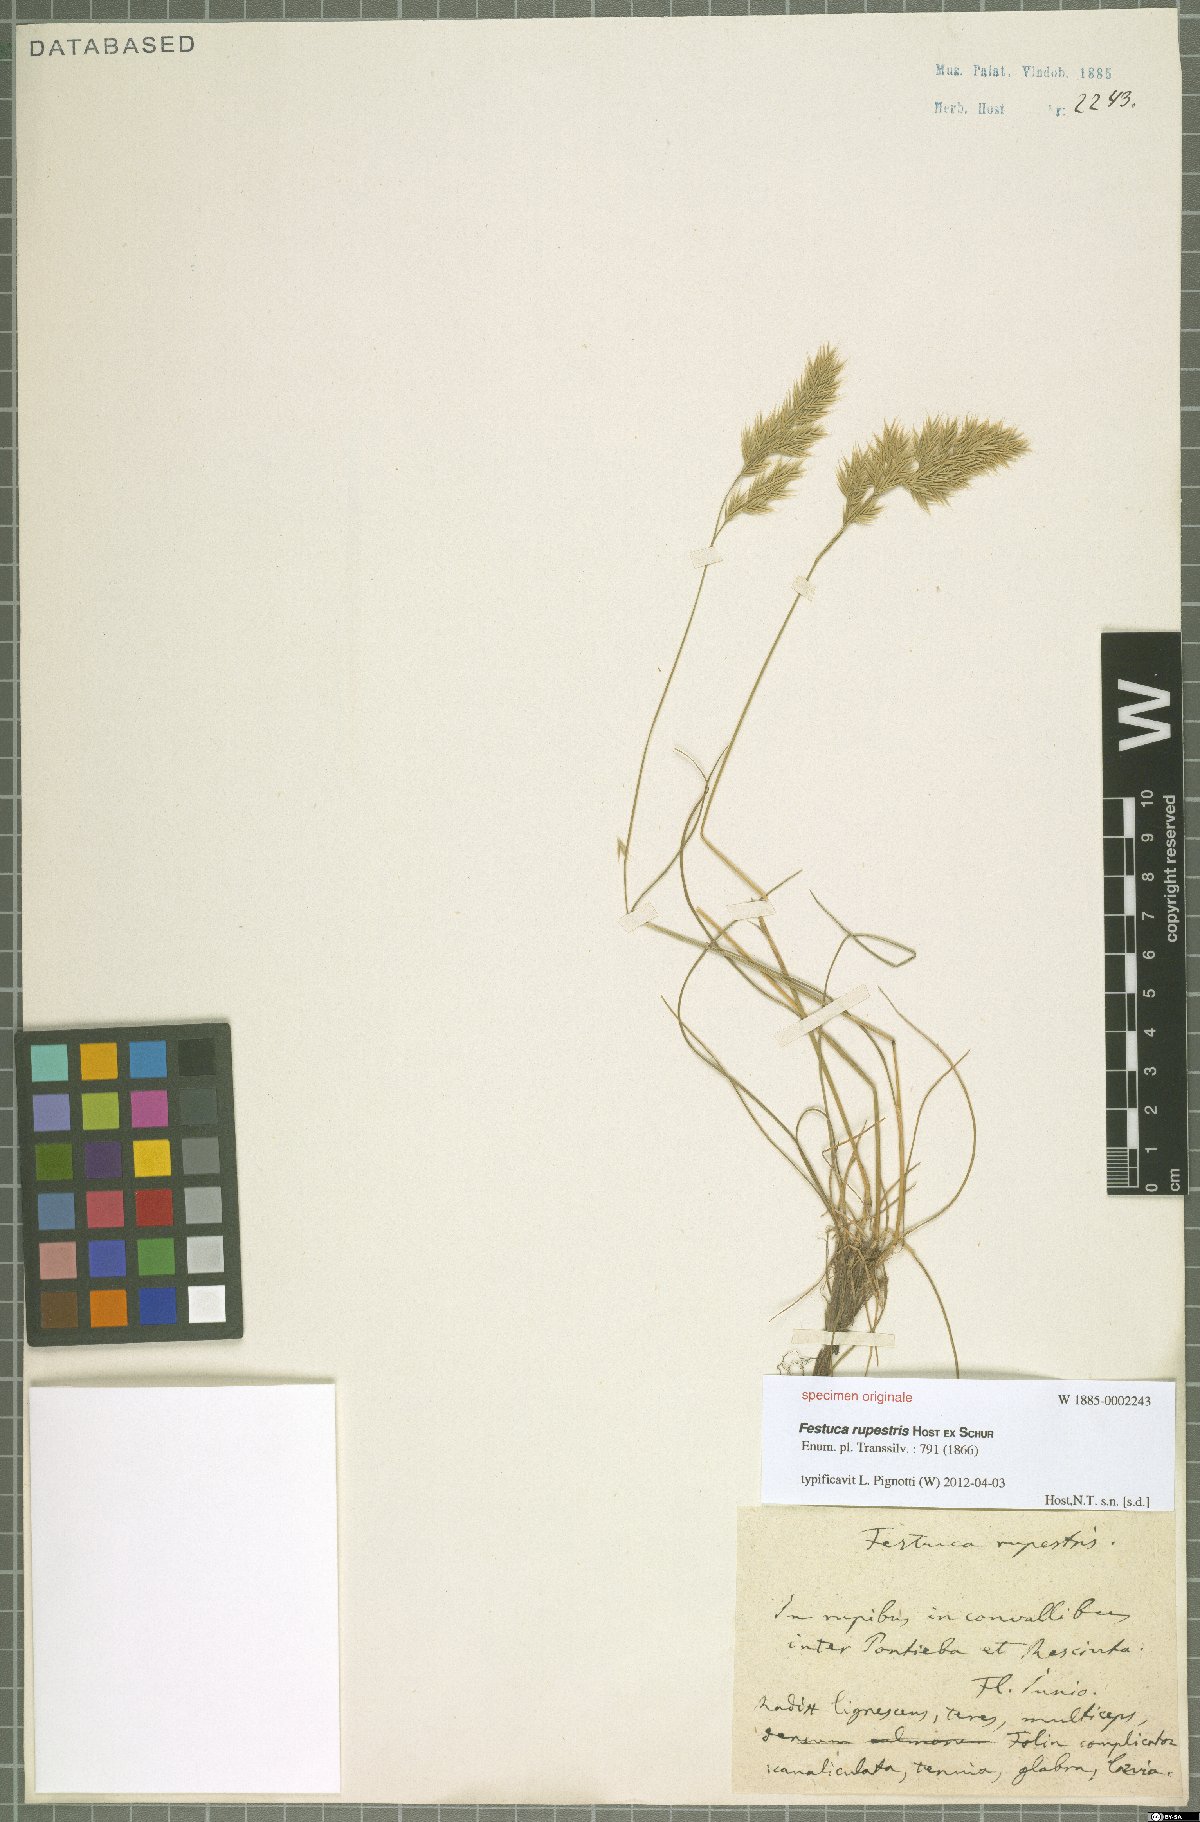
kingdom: Plantae
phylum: Tracheophyta
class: Liliopsida
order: Poales
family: Poaceae
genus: Brachypodium
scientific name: Brachypodium pinnatum
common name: Tor grass
